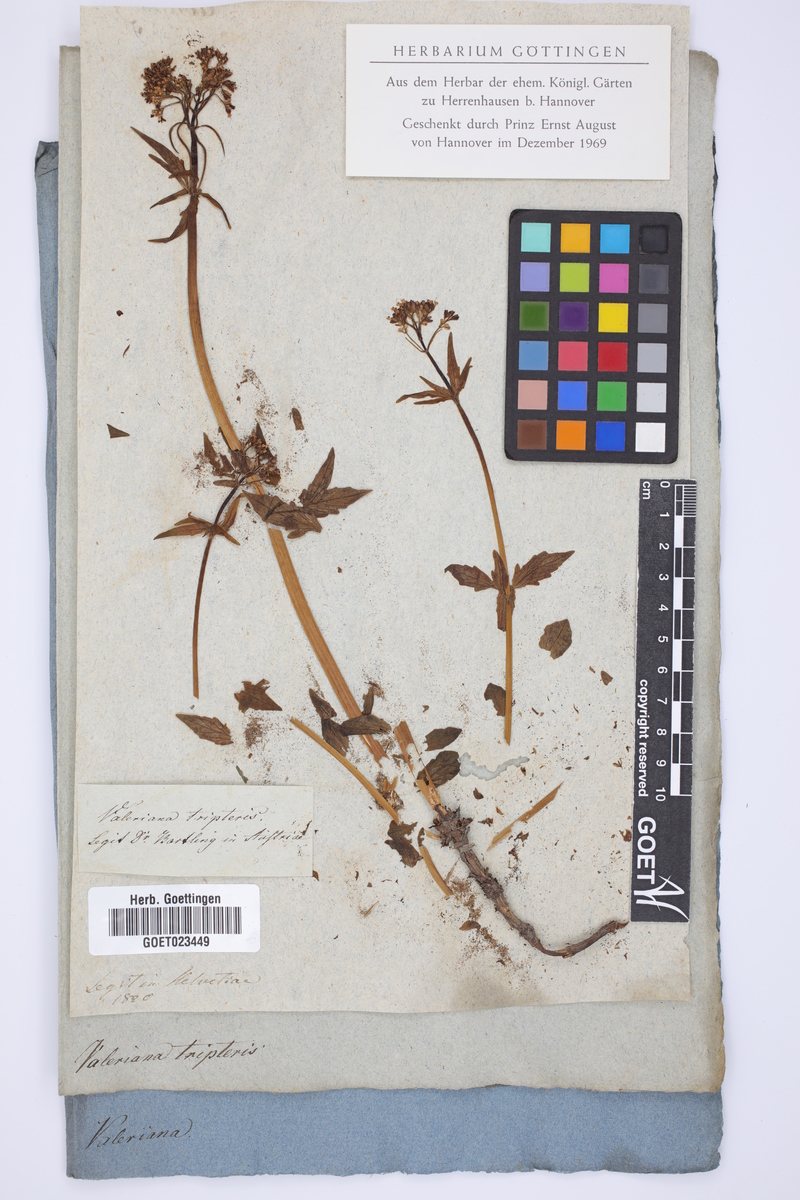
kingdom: Plantae
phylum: Tracheophyta
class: Magnoliopsida
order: Dipsacales
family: Caprifoliaceae
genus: Valeriana
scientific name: Valeriana tripteris
